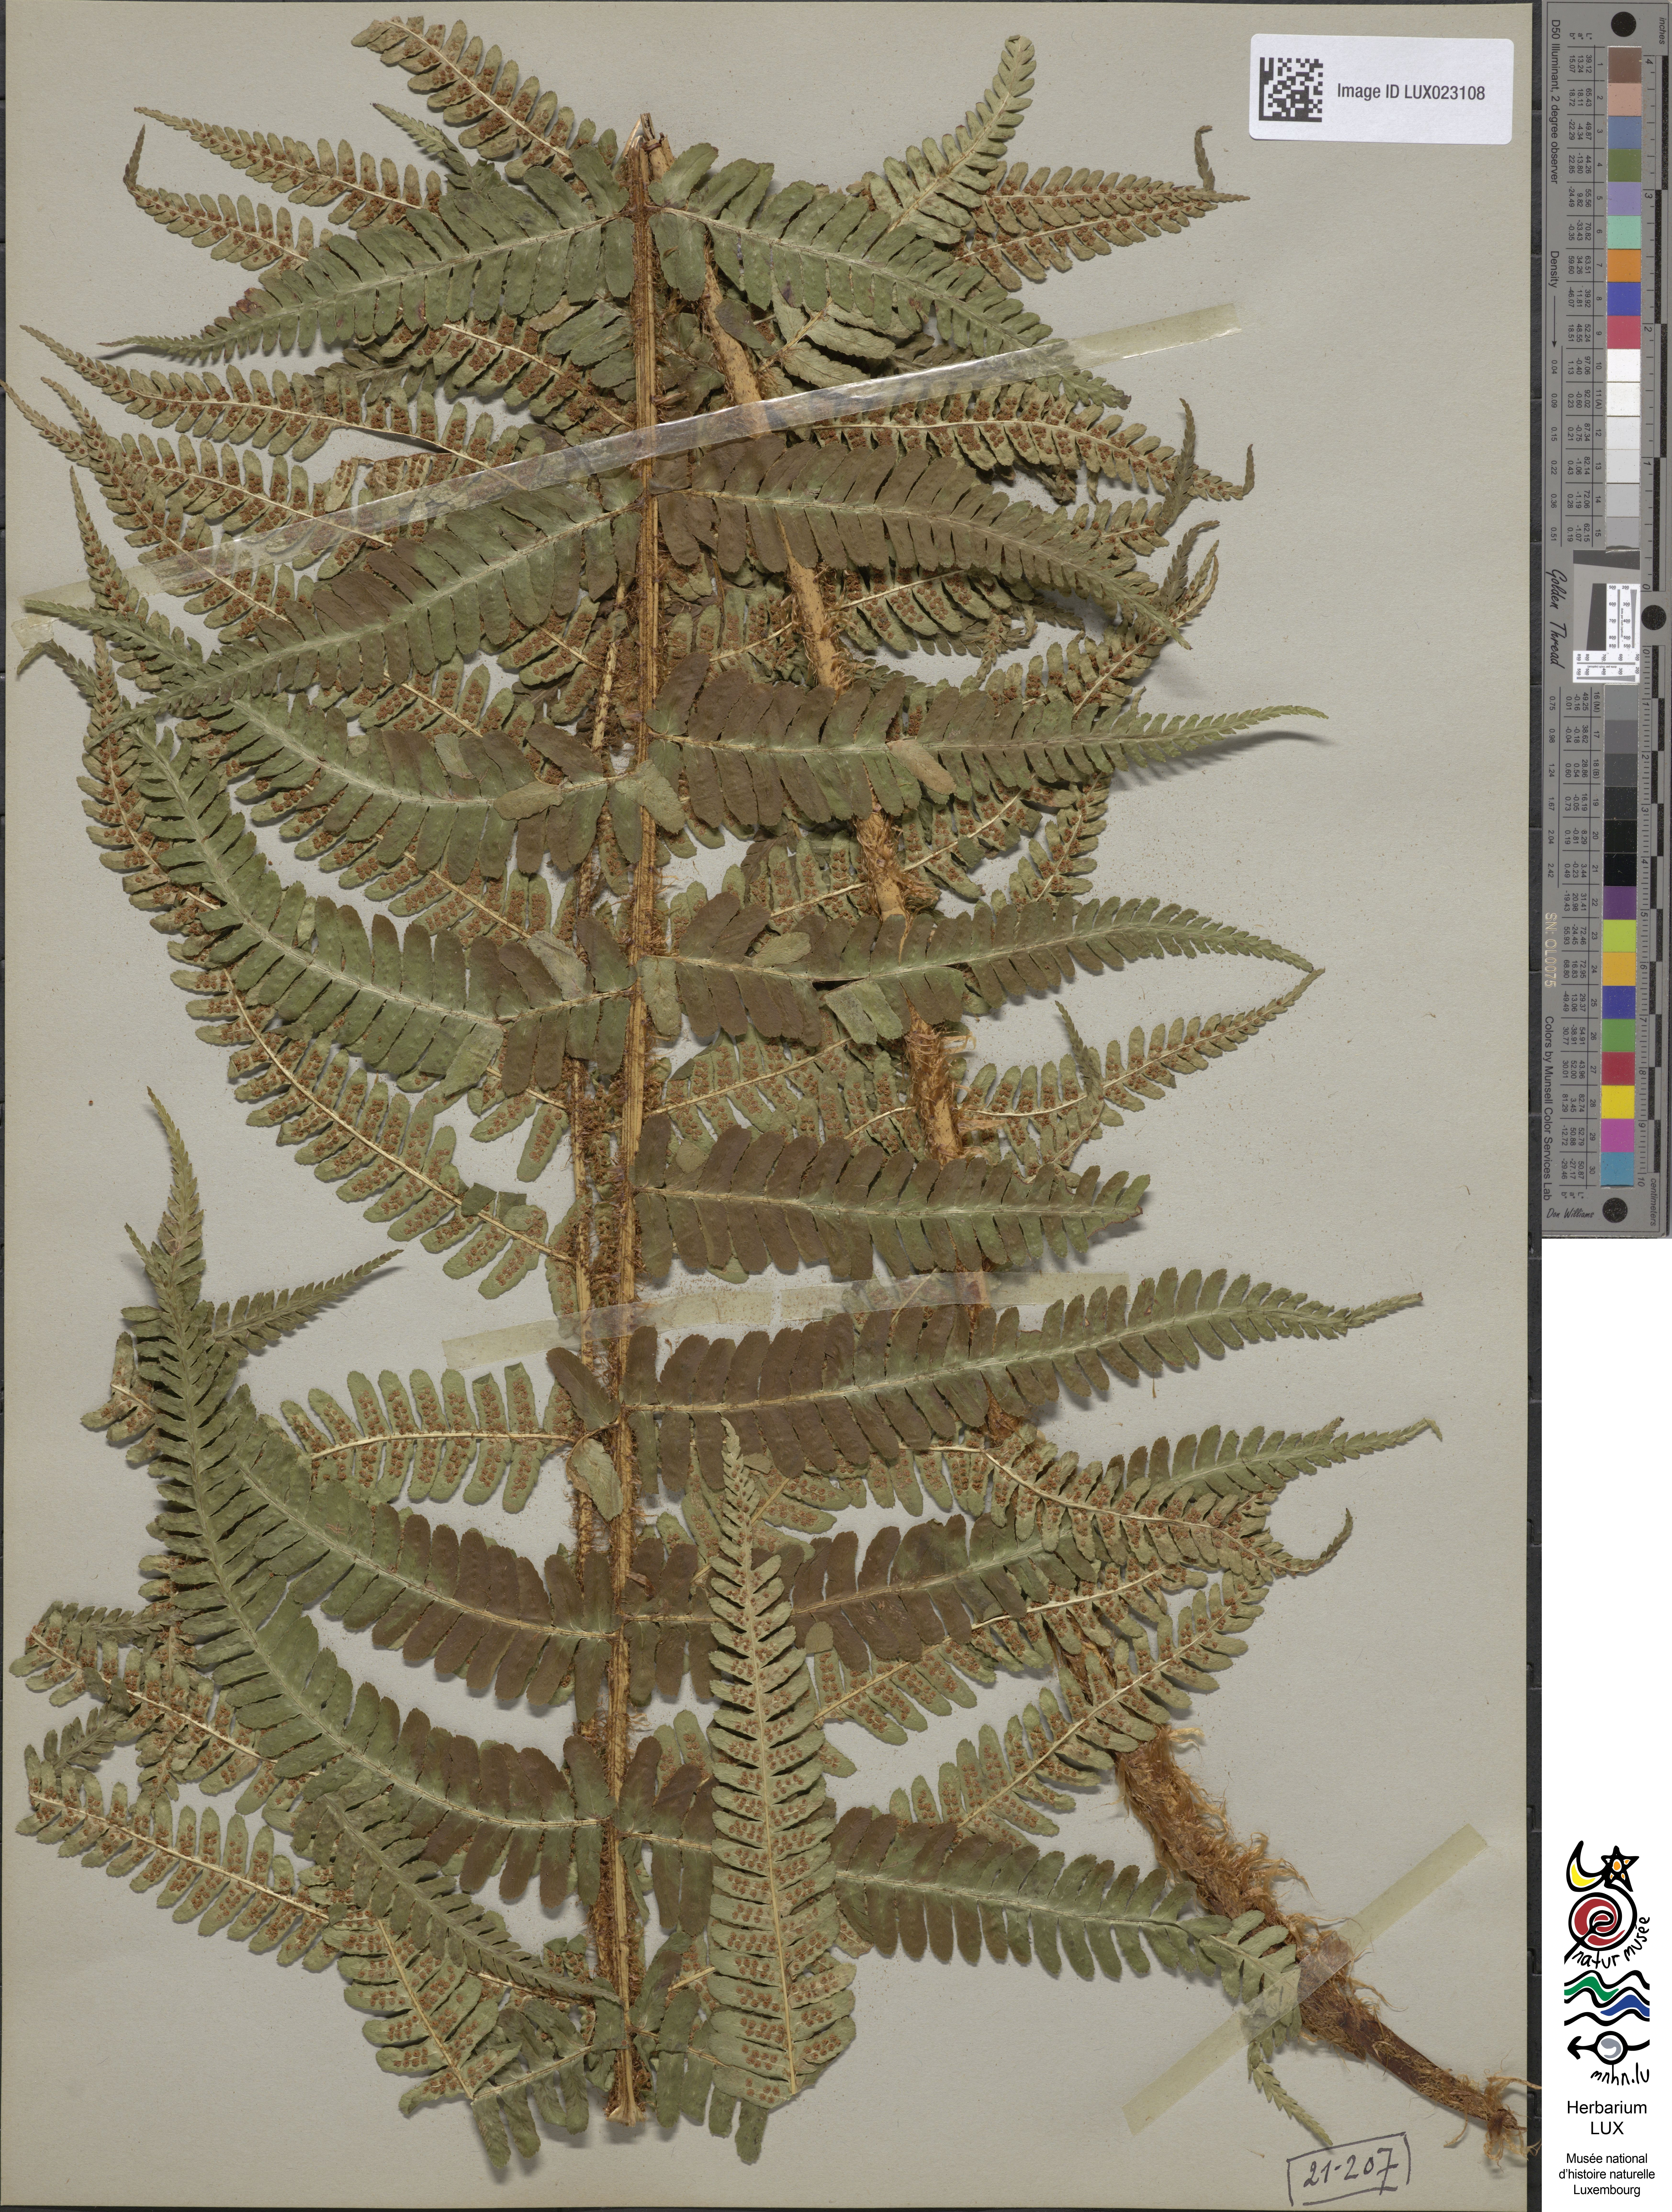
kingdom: Plantae
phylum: Tracheophyta
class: Polypodiopsida
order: Polypodiales
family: Dryopteridaceae
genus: Dryopteris
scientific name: Dryopteris borreri
